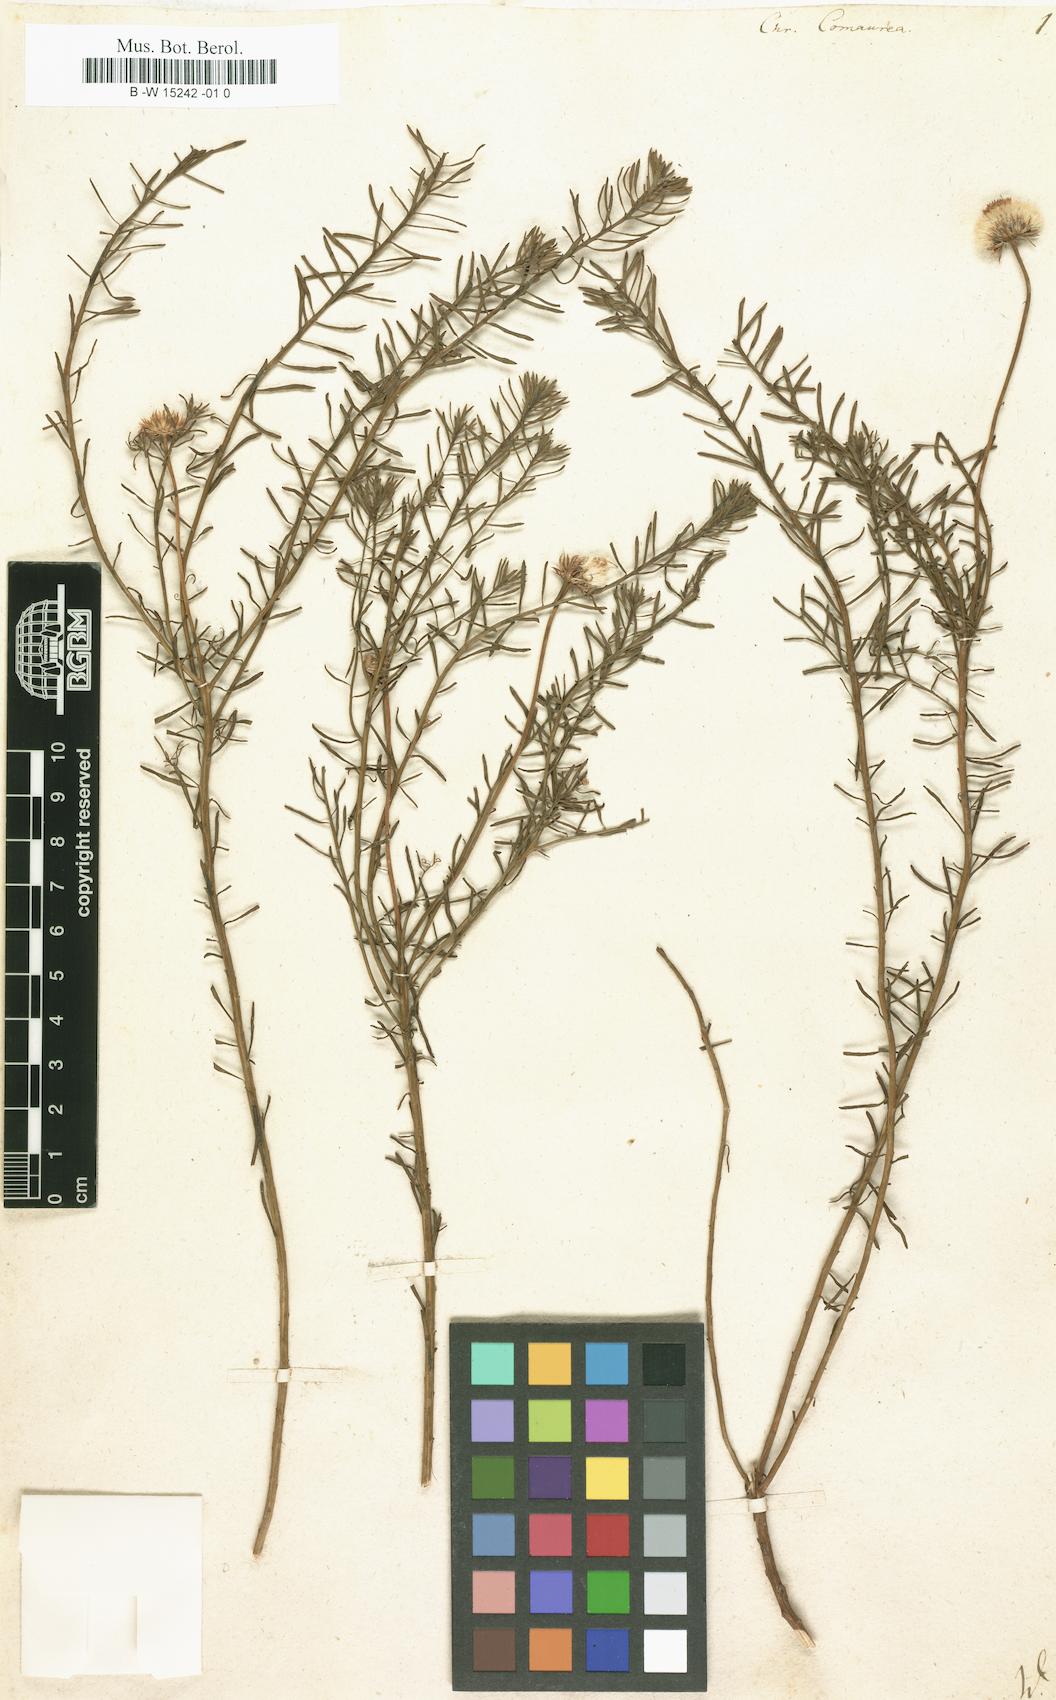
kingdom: Plantae
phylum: Tracheophyta
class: Magnoliopsida
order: Asterales
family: Asteraceae
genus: Chrysocoma
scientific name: Chrysocoma cernua
